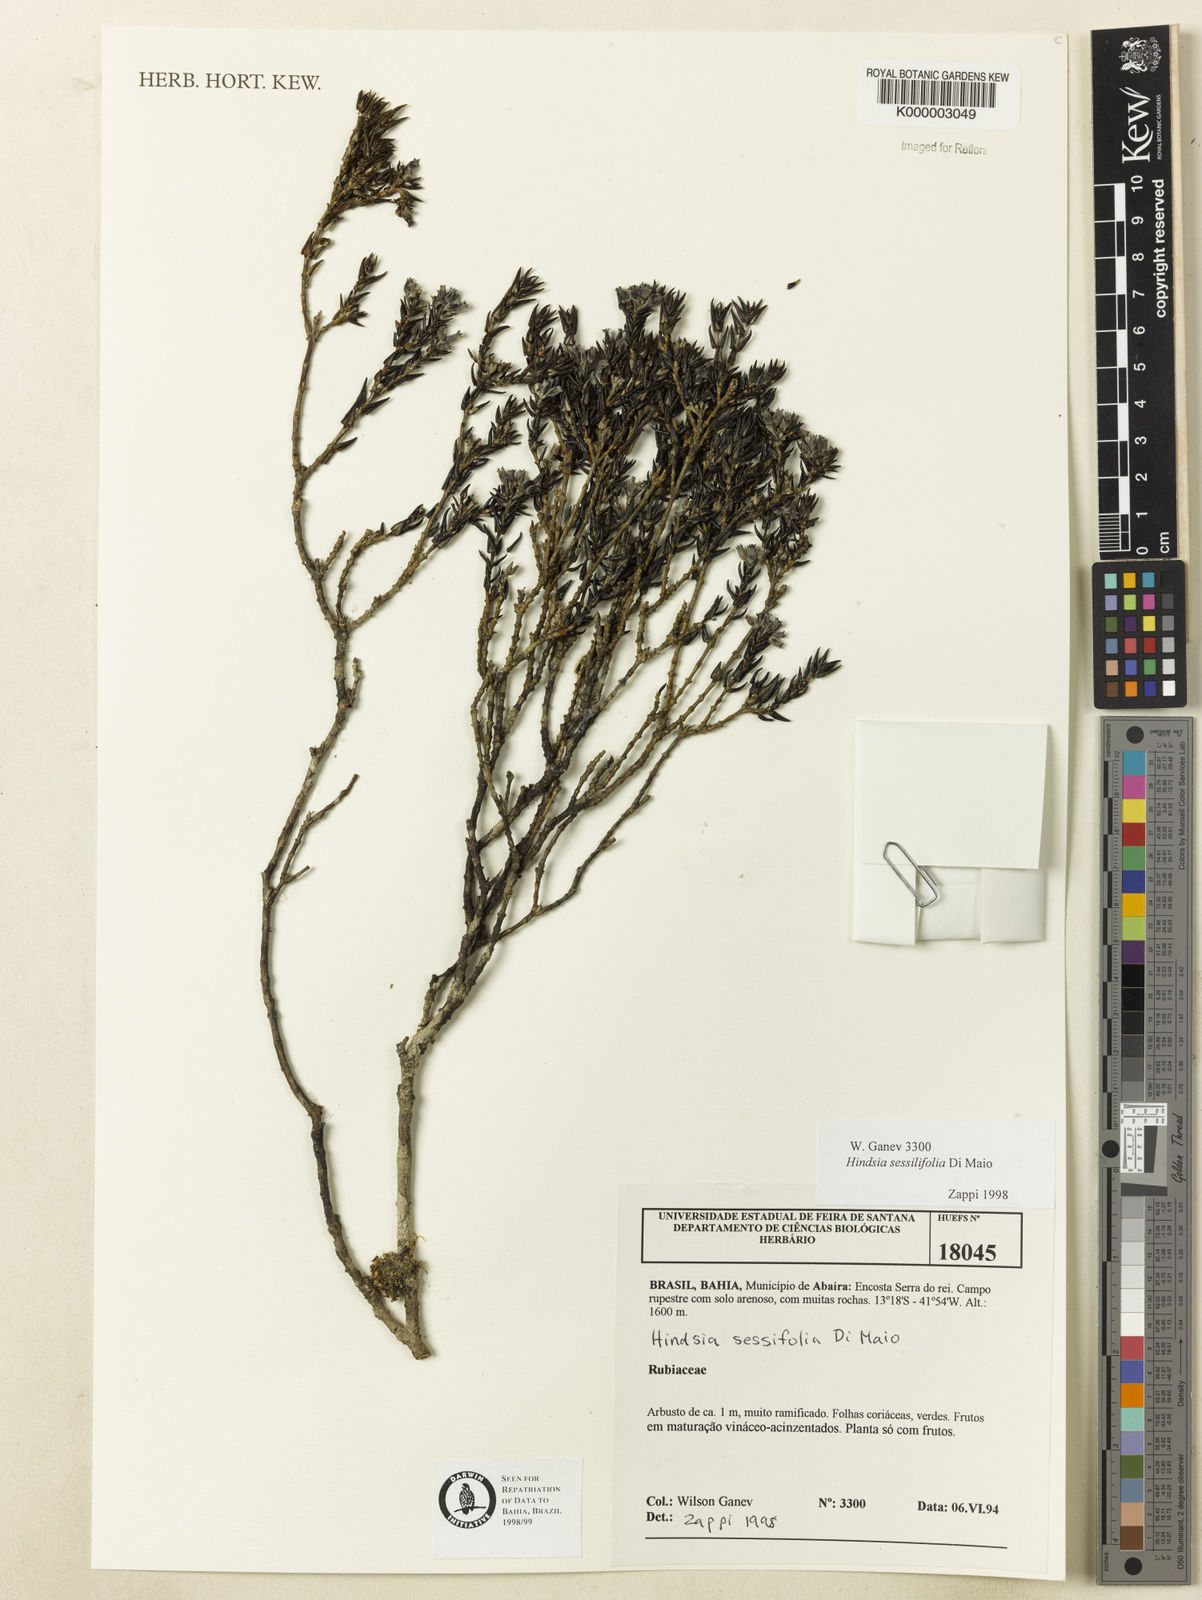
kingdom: Plantae
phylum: Tracheophyta
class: Magnoliopsida
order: Gentianales
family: Rubiaceae
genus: Hindsia
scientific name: Hindsia sessilifolia
